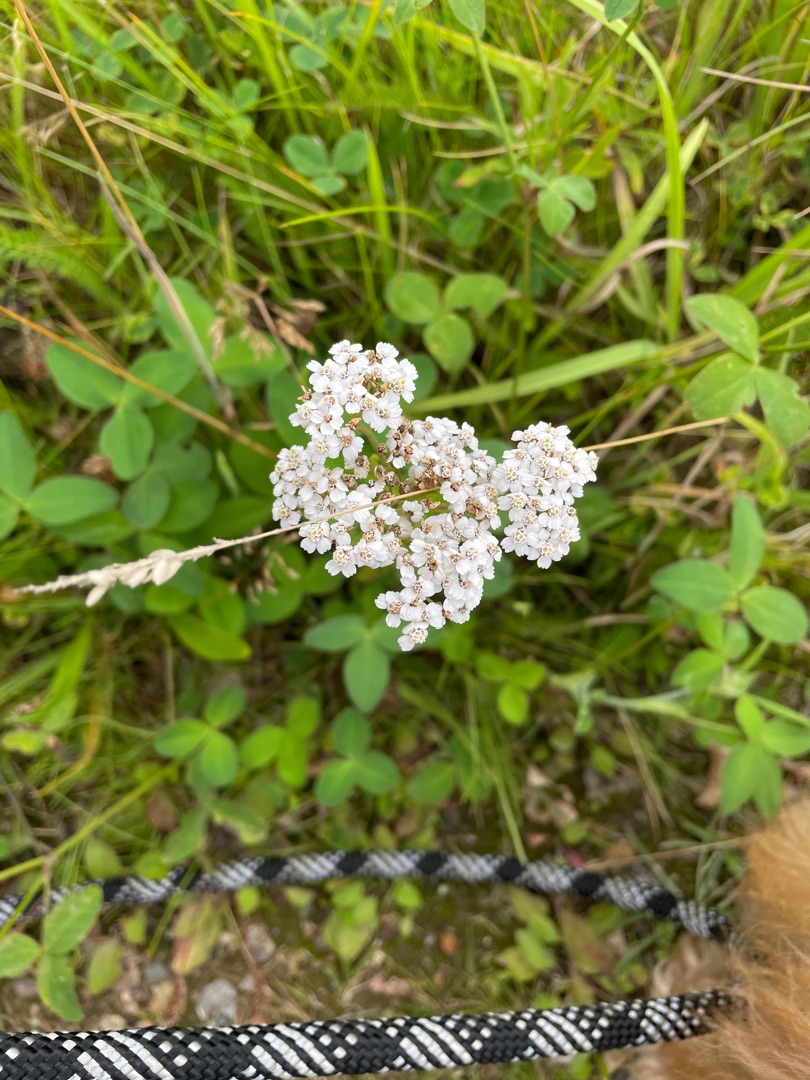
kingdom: Plantae
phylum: Tracheophyta
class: Magnoliopsida
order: Asterales
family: Asteraceae
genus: Achillea
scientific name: Achillea millefolium
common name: Almindelig røllike
